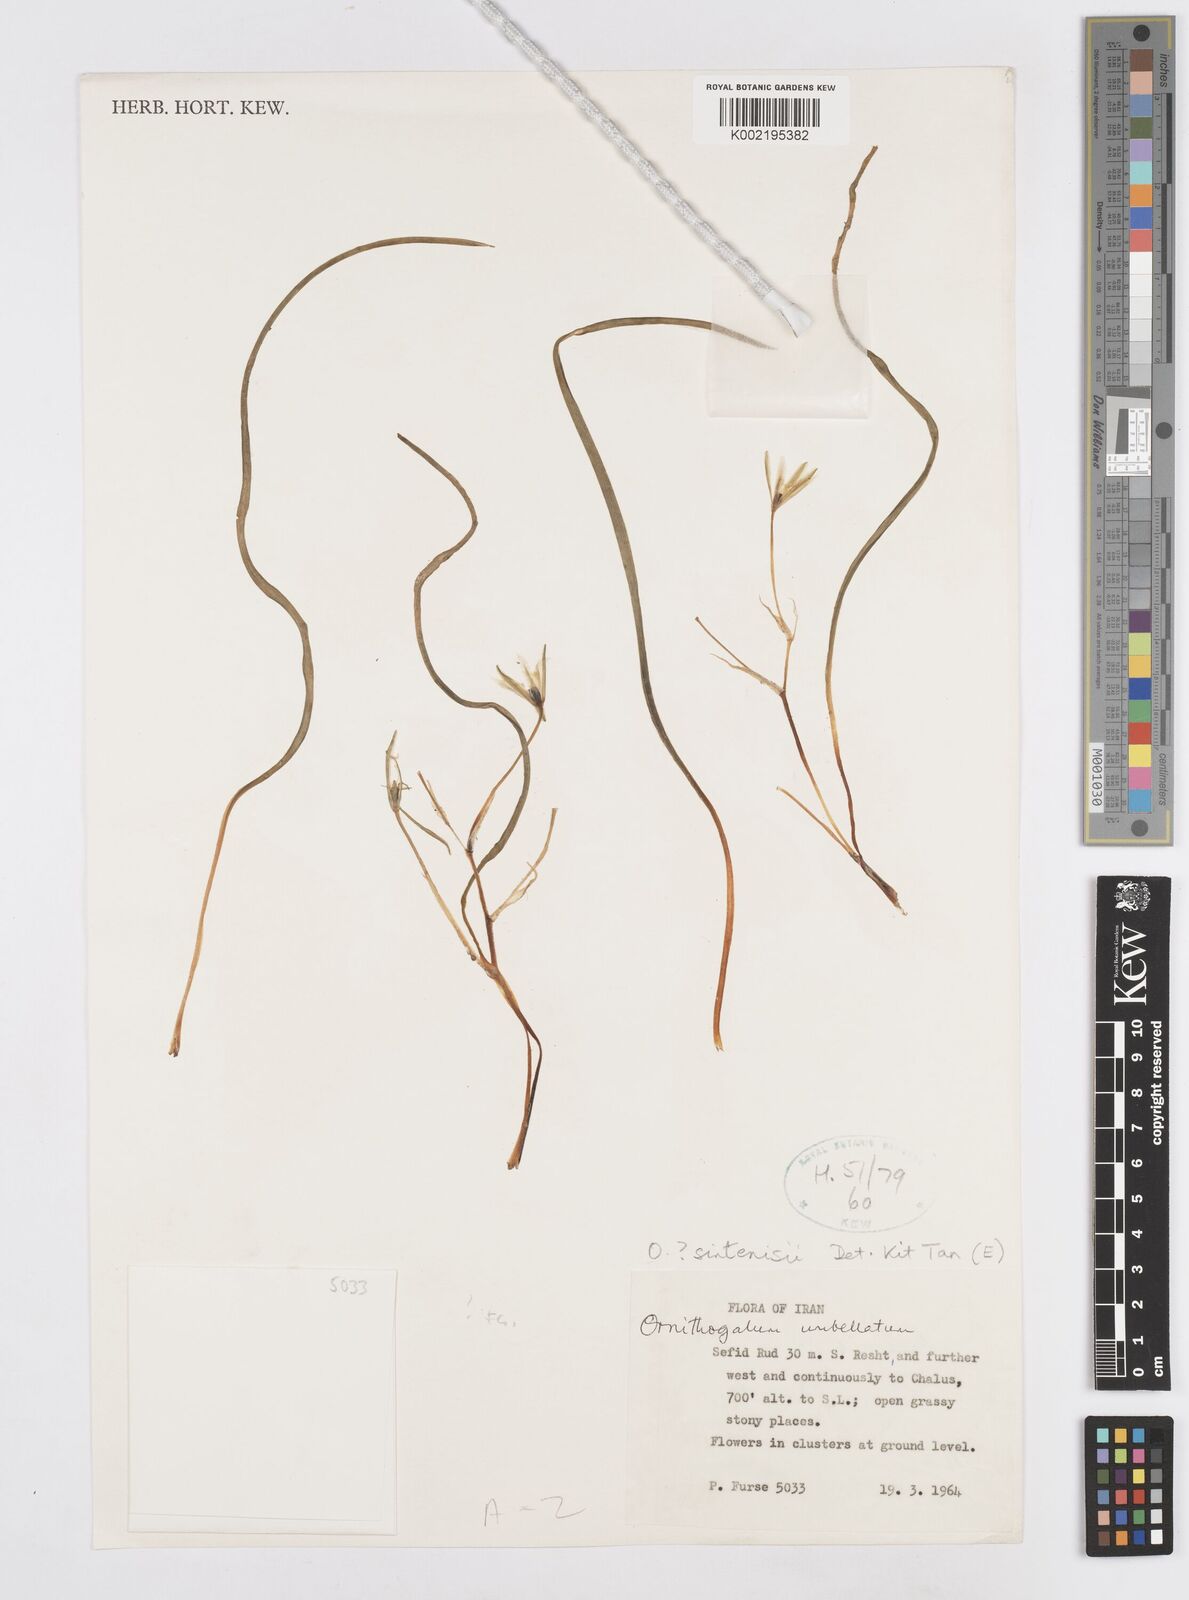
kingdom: Plantae
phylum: Tracheophyta
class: Liliopsida
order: Asparagales
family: Asparagaceae
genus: Ornithogalum
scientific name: Ornithogalum sintenisii
